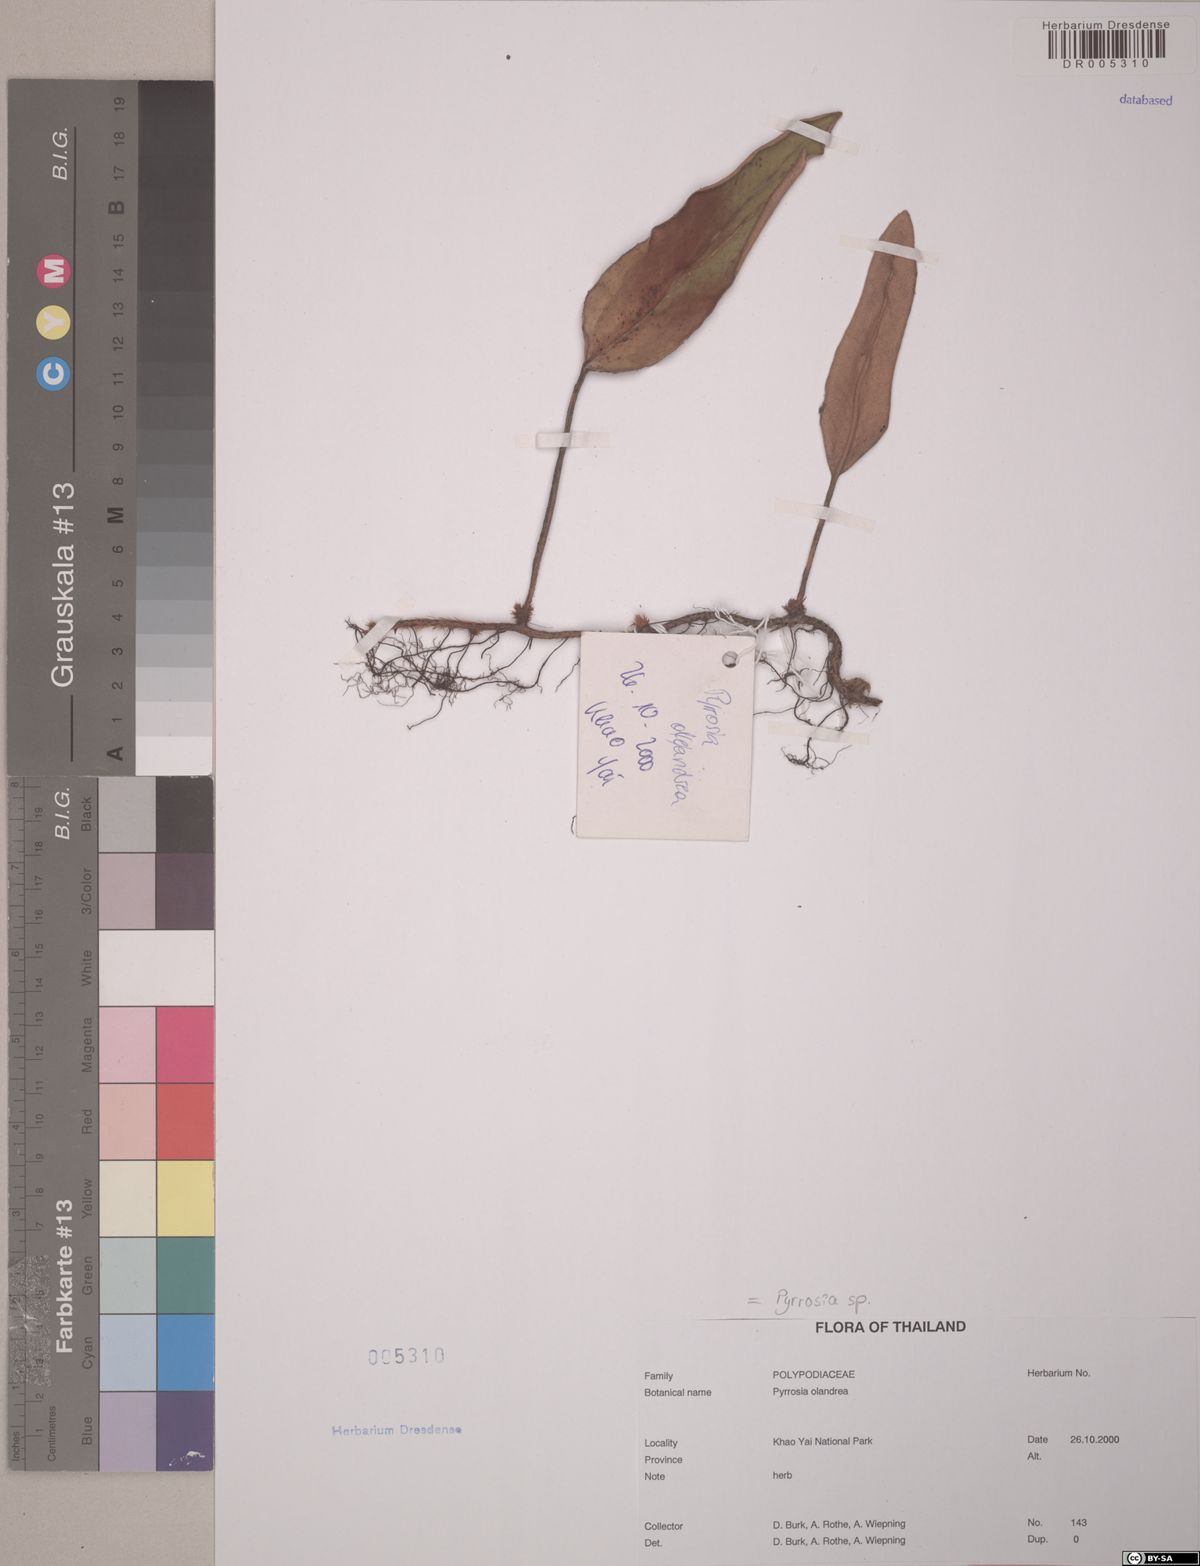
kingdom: Plantae
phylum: Tracheophyta
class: Polypodiopsida
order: Polypodiales
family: Polypodiaceae
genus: Pyrrosia
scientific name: Pyrrosia
